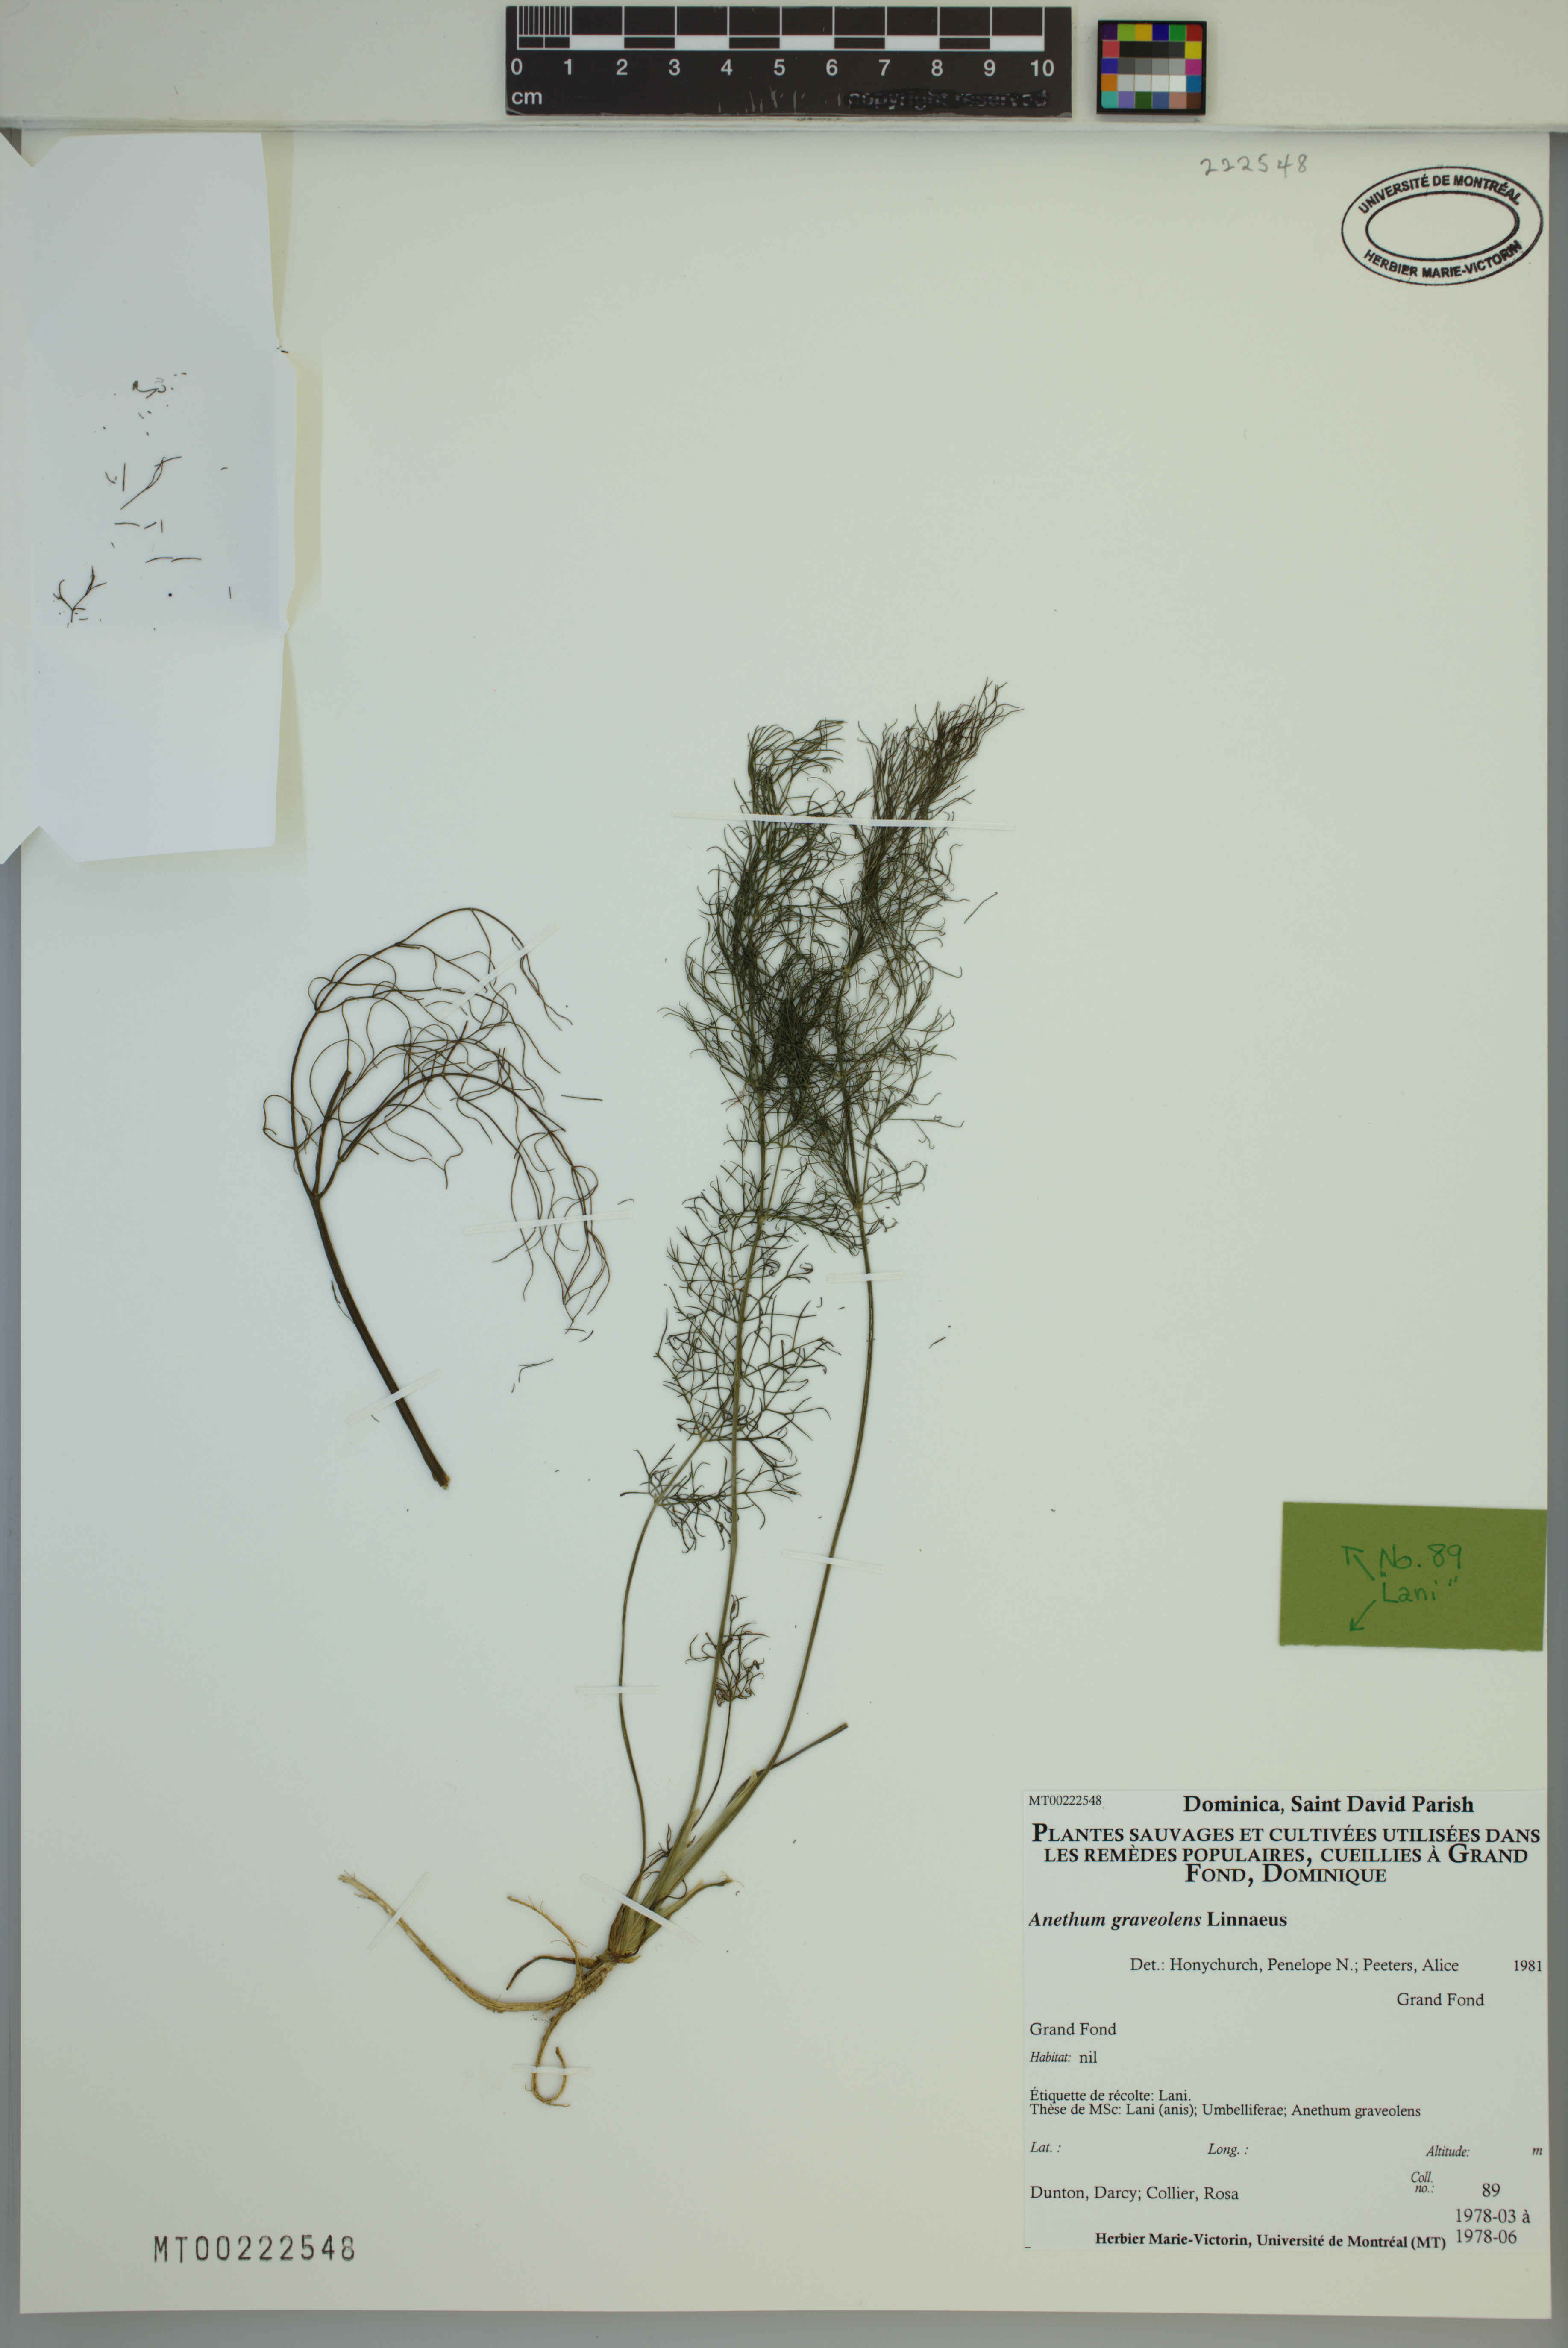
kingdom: Plantae
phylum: Tracheophyta
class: Magnoliopsida
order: Apiales
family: Apiaceae
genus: Anethum
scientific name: Anethum graveolens
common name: Dill
